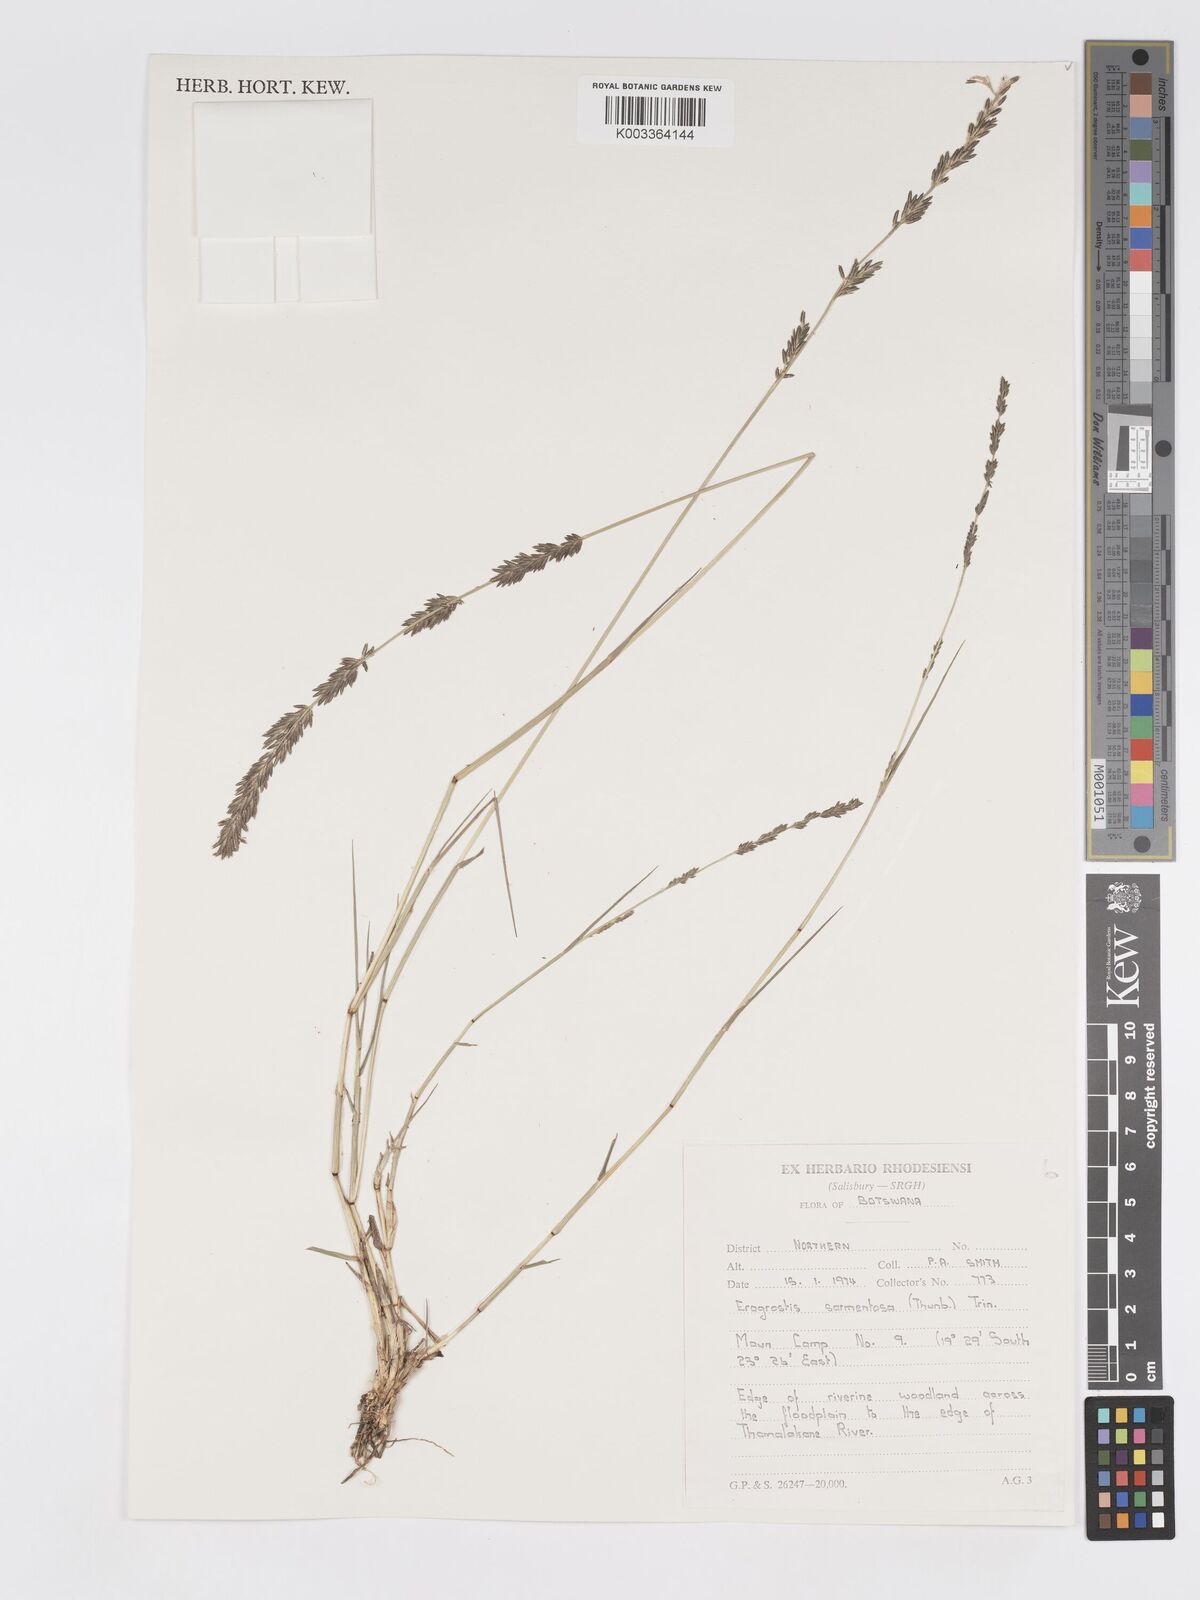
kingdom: Plantae
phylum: Tracheophyta
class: Liliopsida
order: Poales
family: Poaceae
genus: Eragrostis
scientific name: Eragrostis sarmentosa
